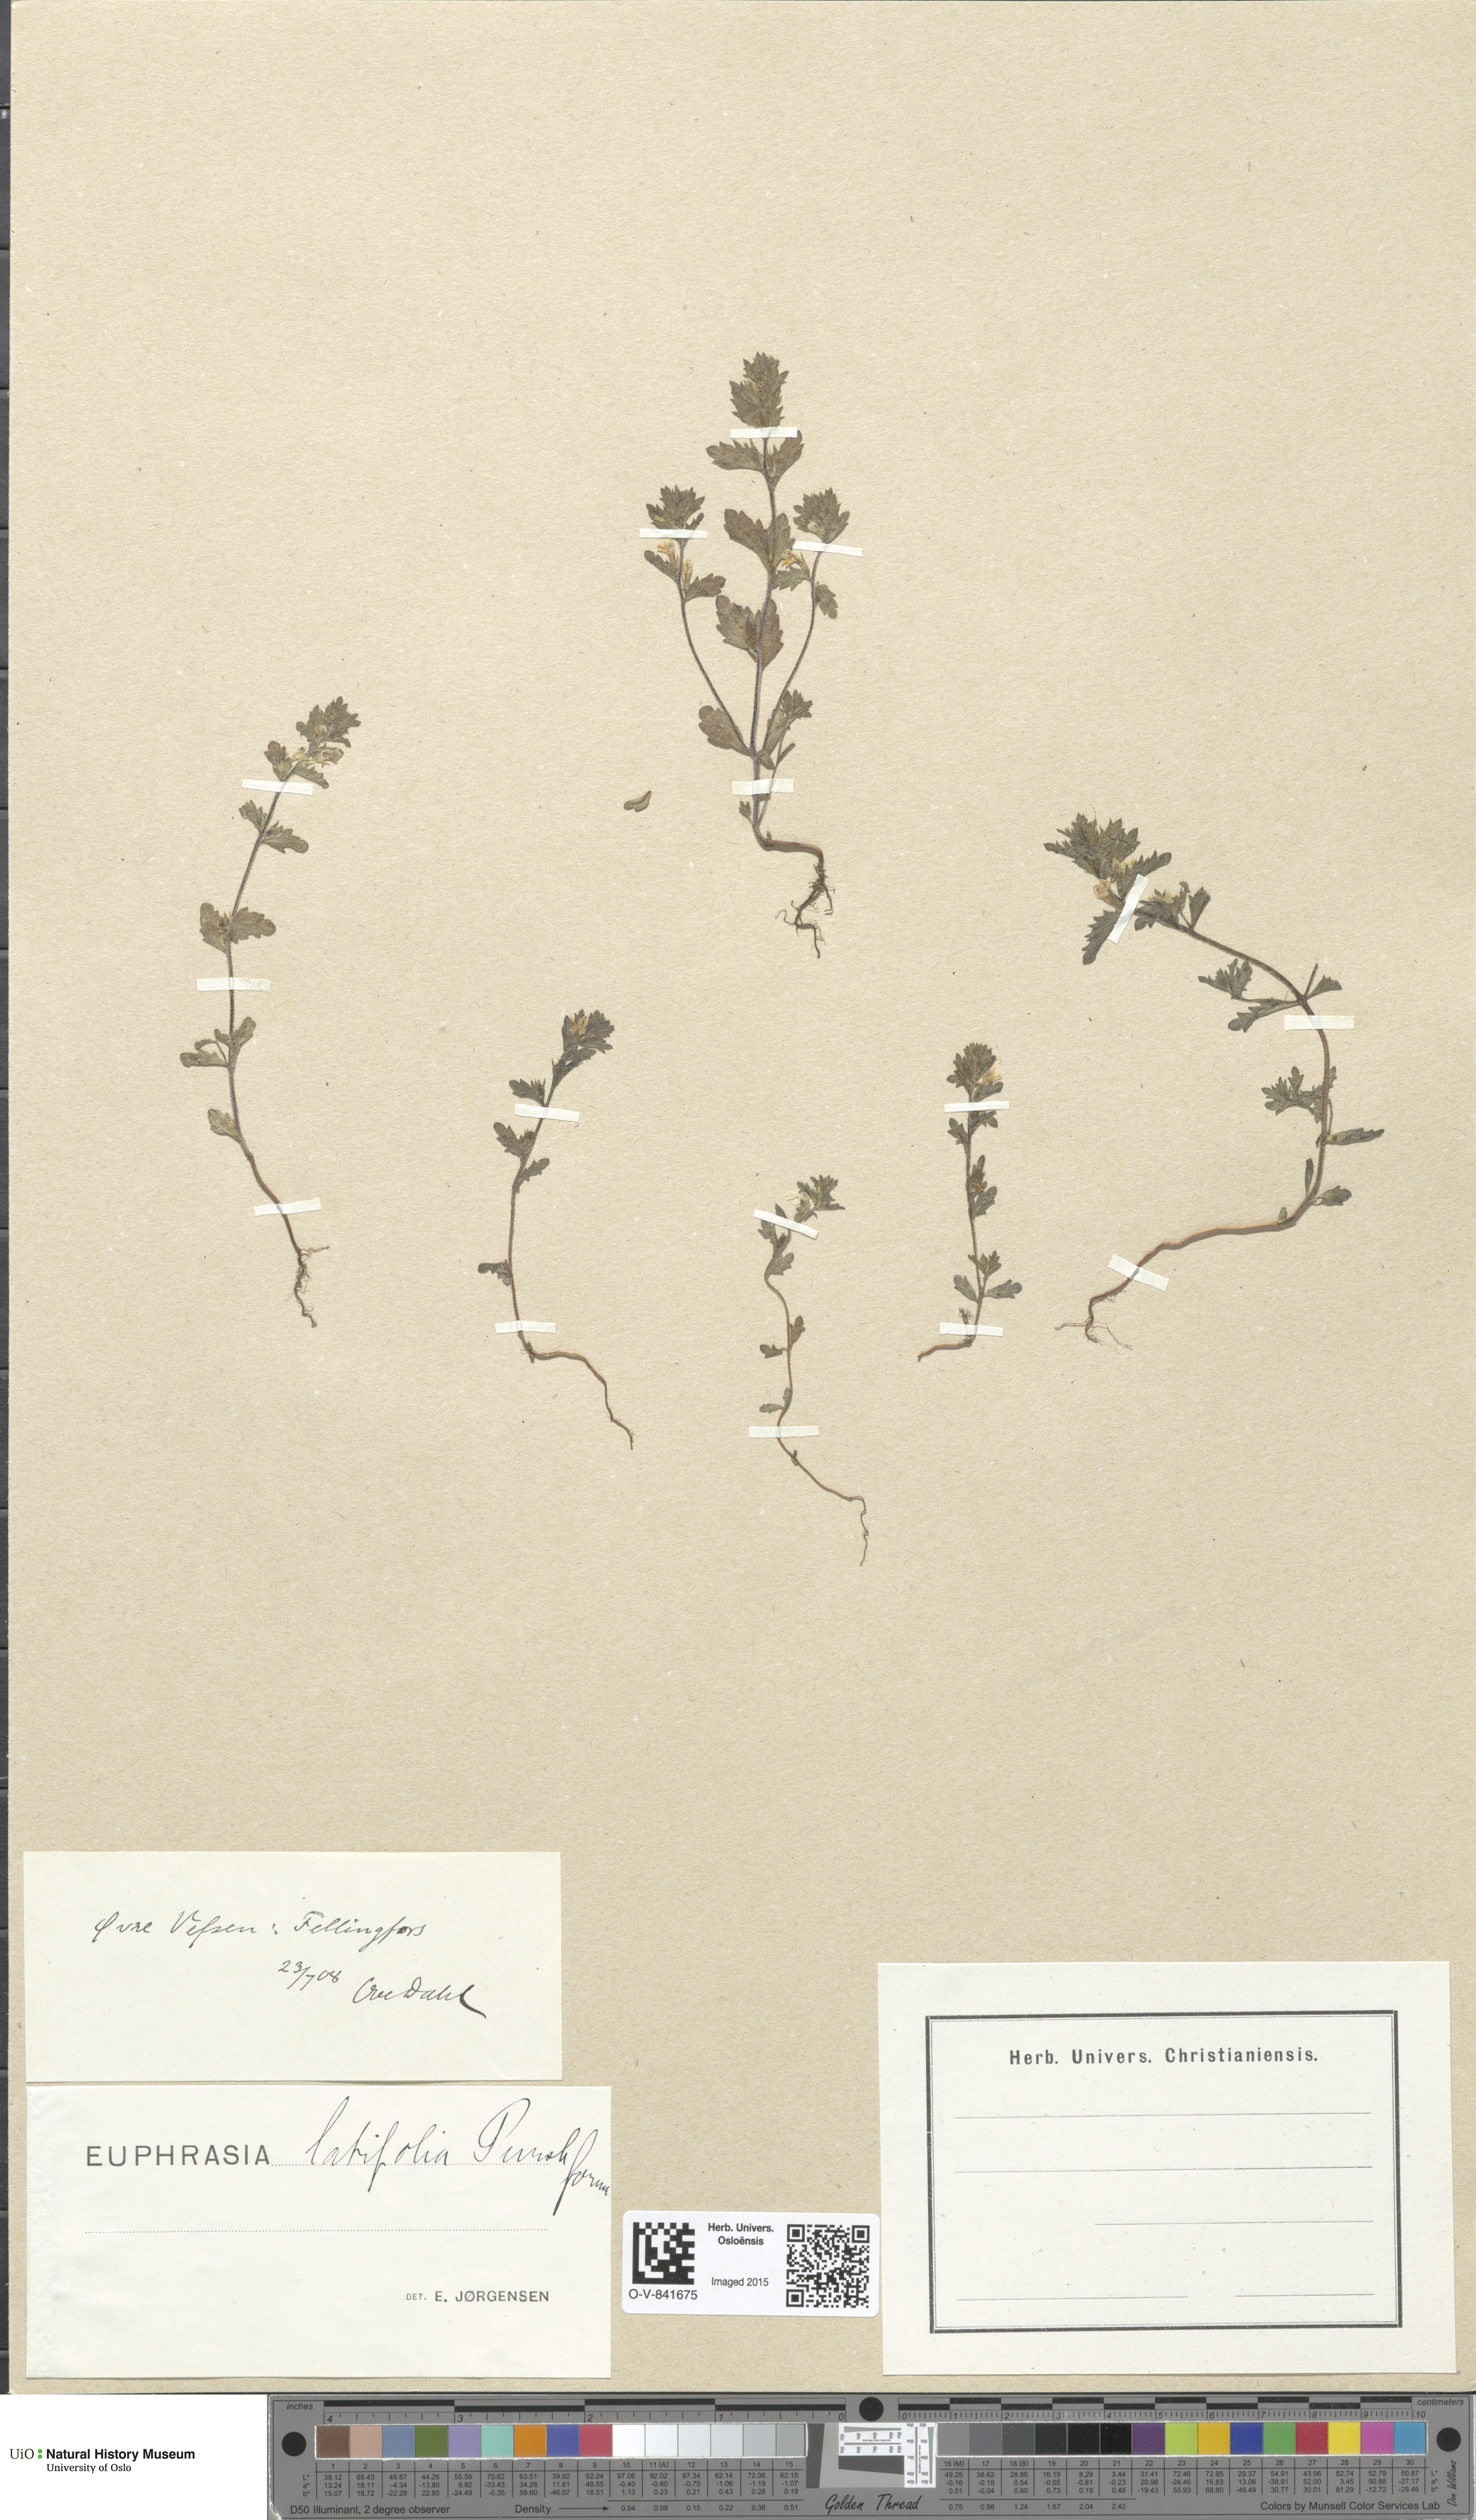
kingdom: Plantae
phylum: Tracheophyta
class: Magnoliopsida
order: Lamiales
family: Orobanchaceae
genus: Euphrasia
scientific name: Euphrasia wettsteinii
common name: Wettstein's eyebright
